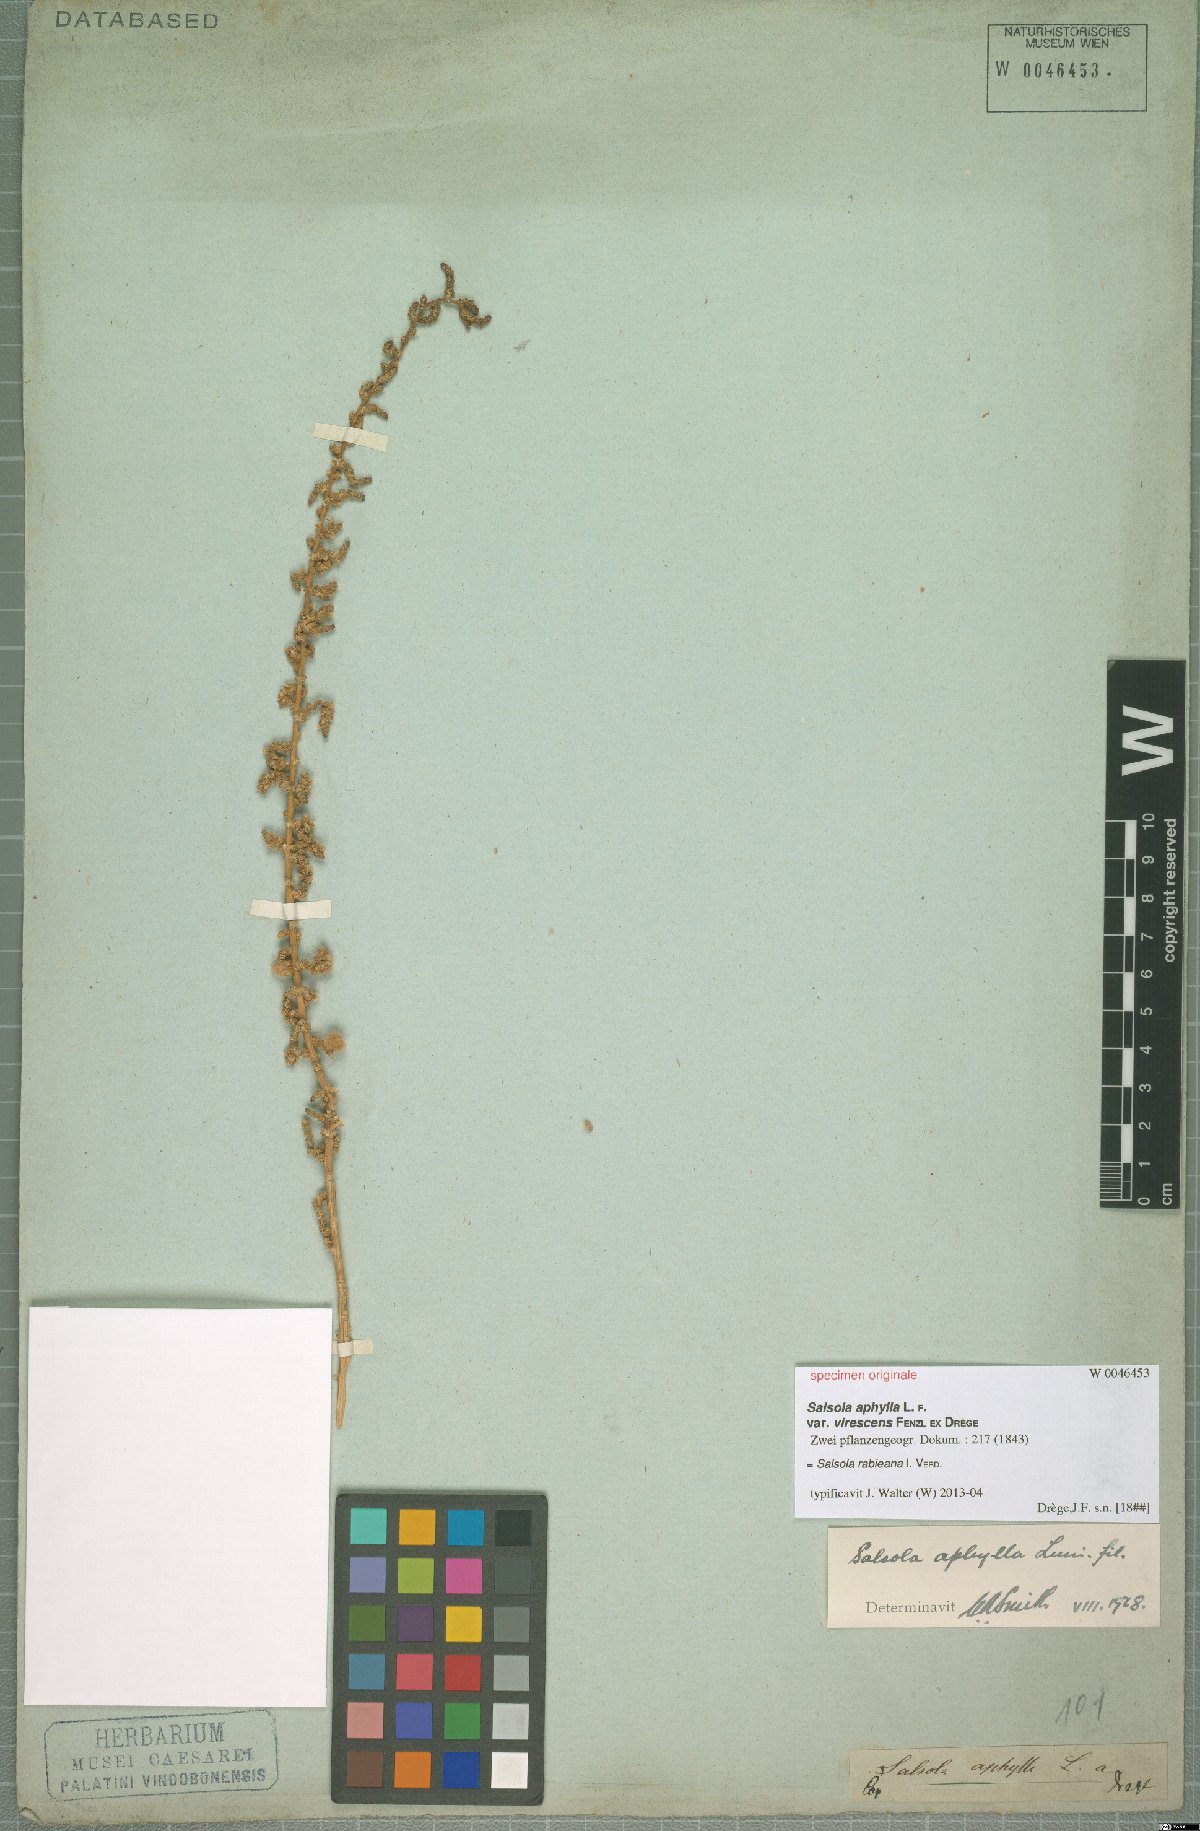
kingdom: Plantae
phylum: Tracheophyta
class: Magnoliopsida
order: Caryophyllales
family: Amaranthaceae
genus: Caroxylon
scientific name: Caroxylon rabieanum
